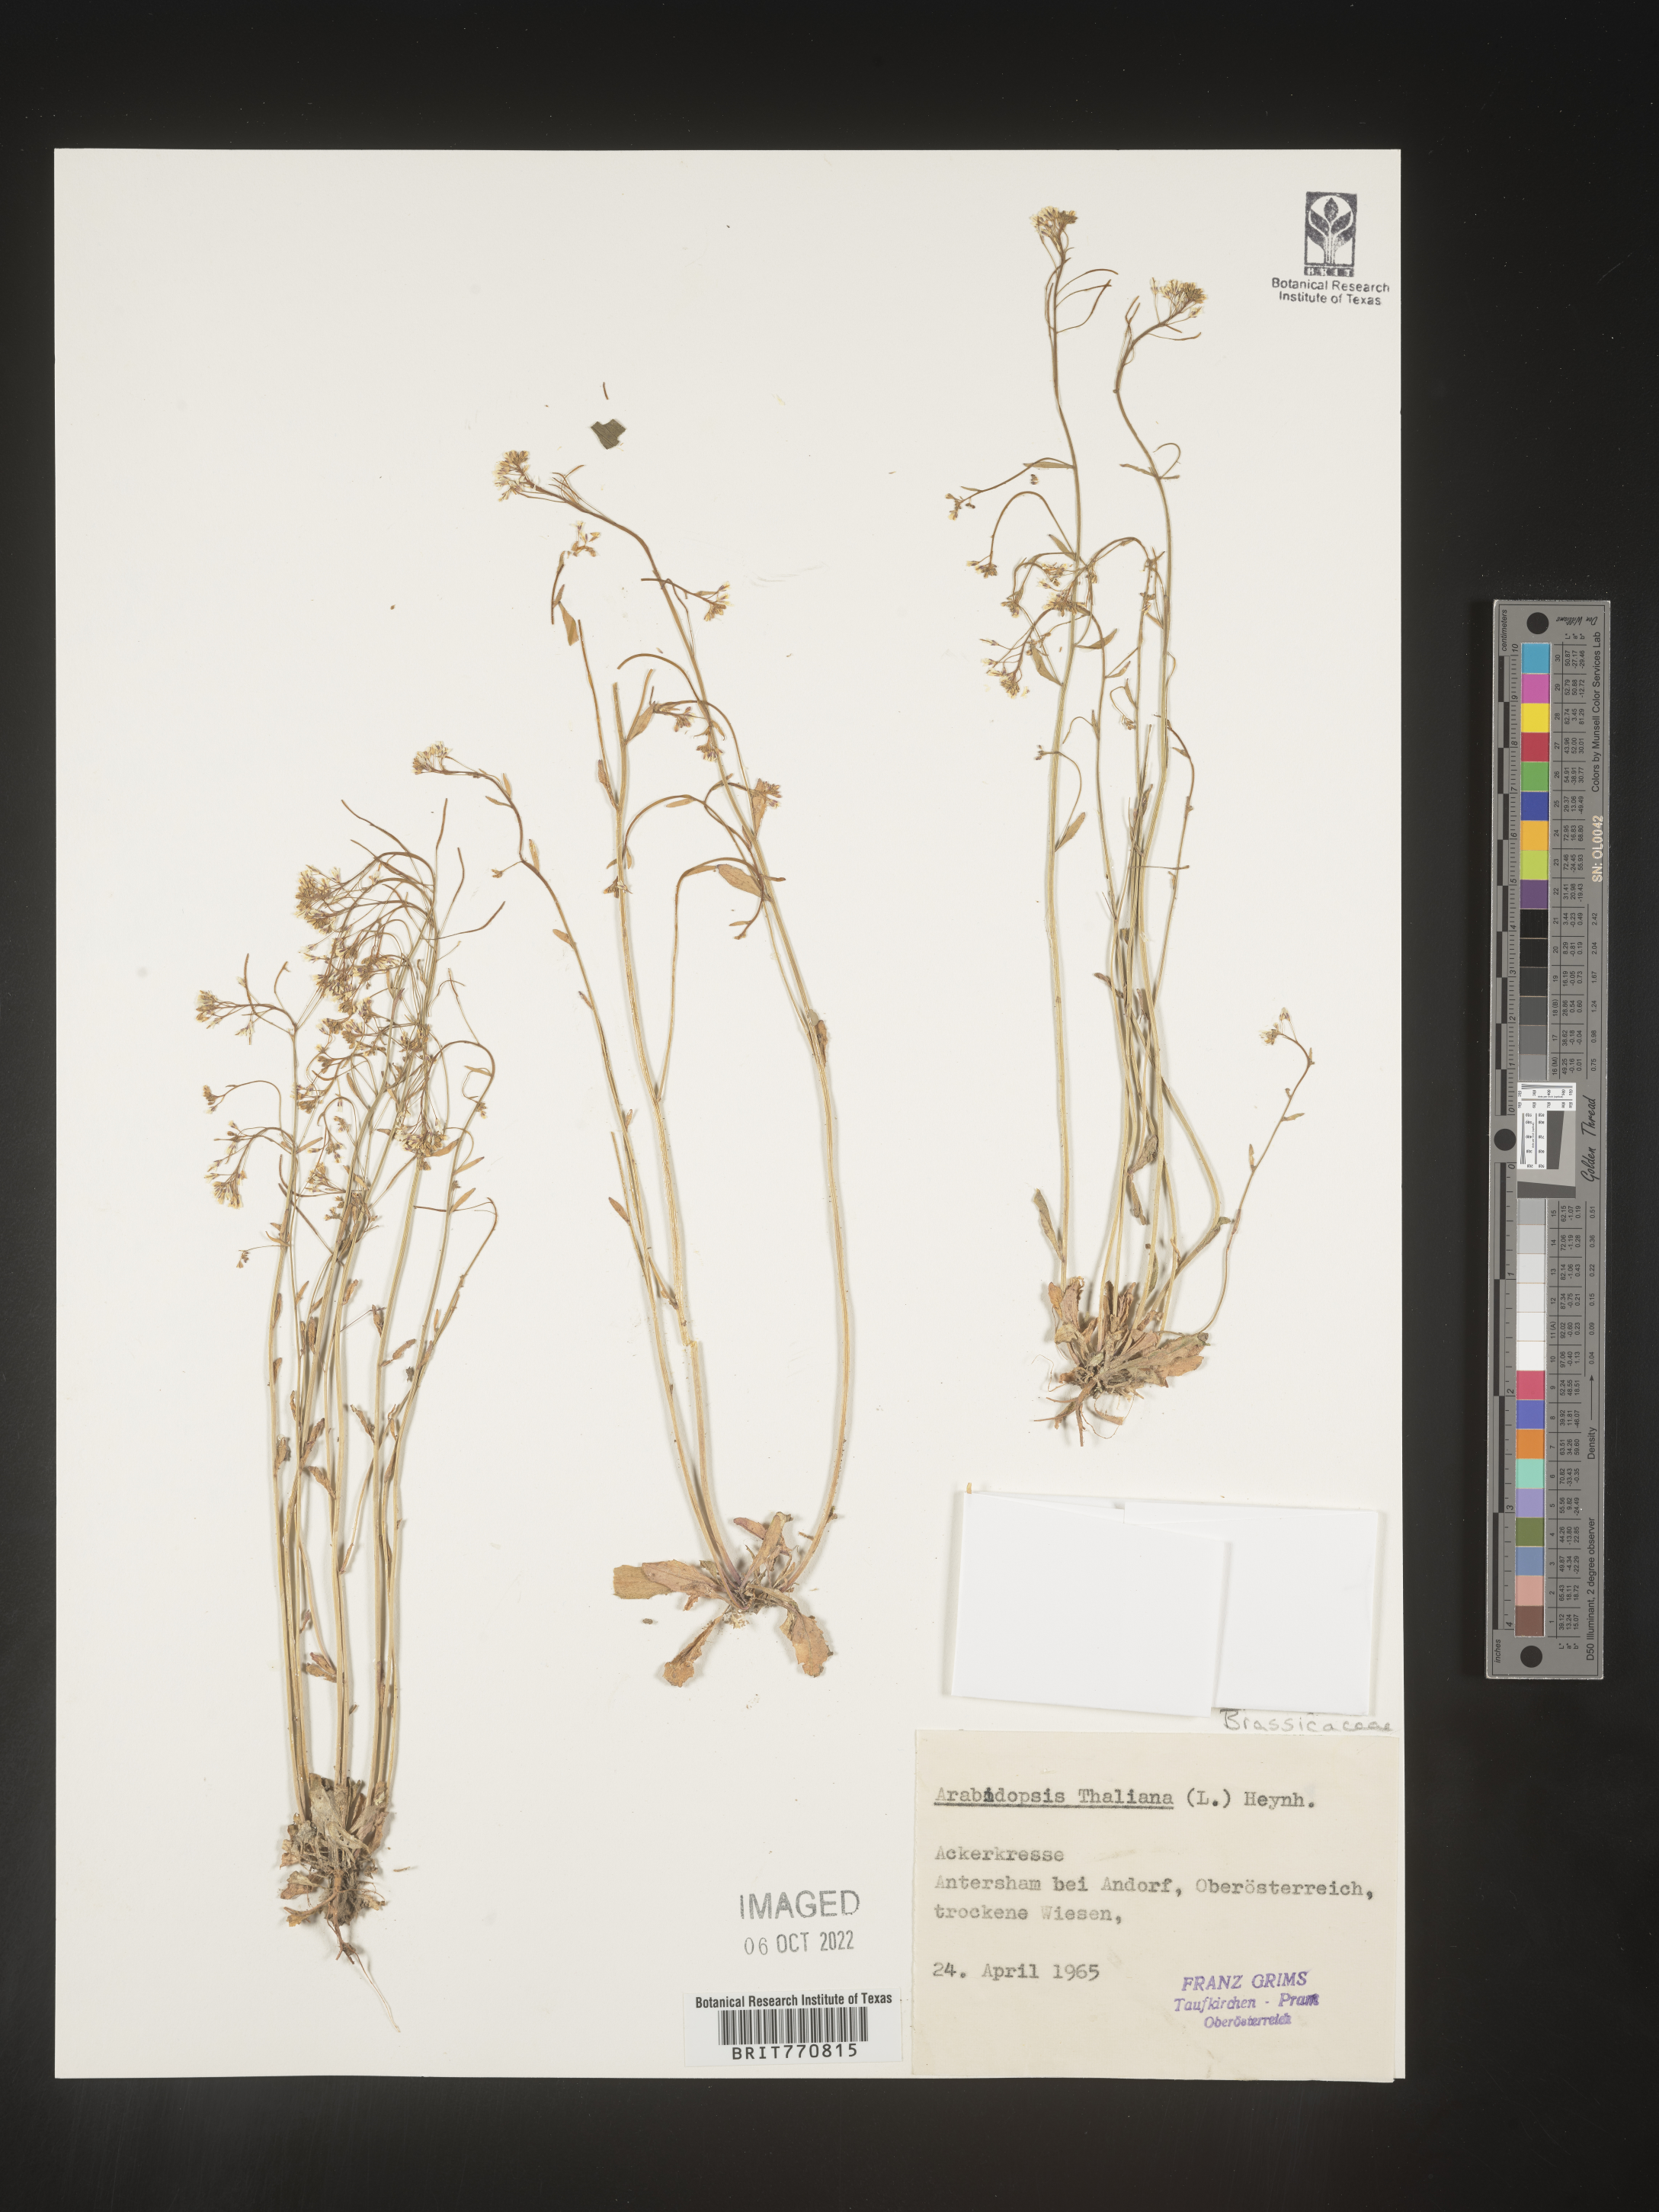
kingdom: Plantae
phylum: Tracheophyta
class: Magnoliopsida
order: Brassicales
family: Brassicaceae
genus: Arabidopsis
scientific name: Arabidopsis
